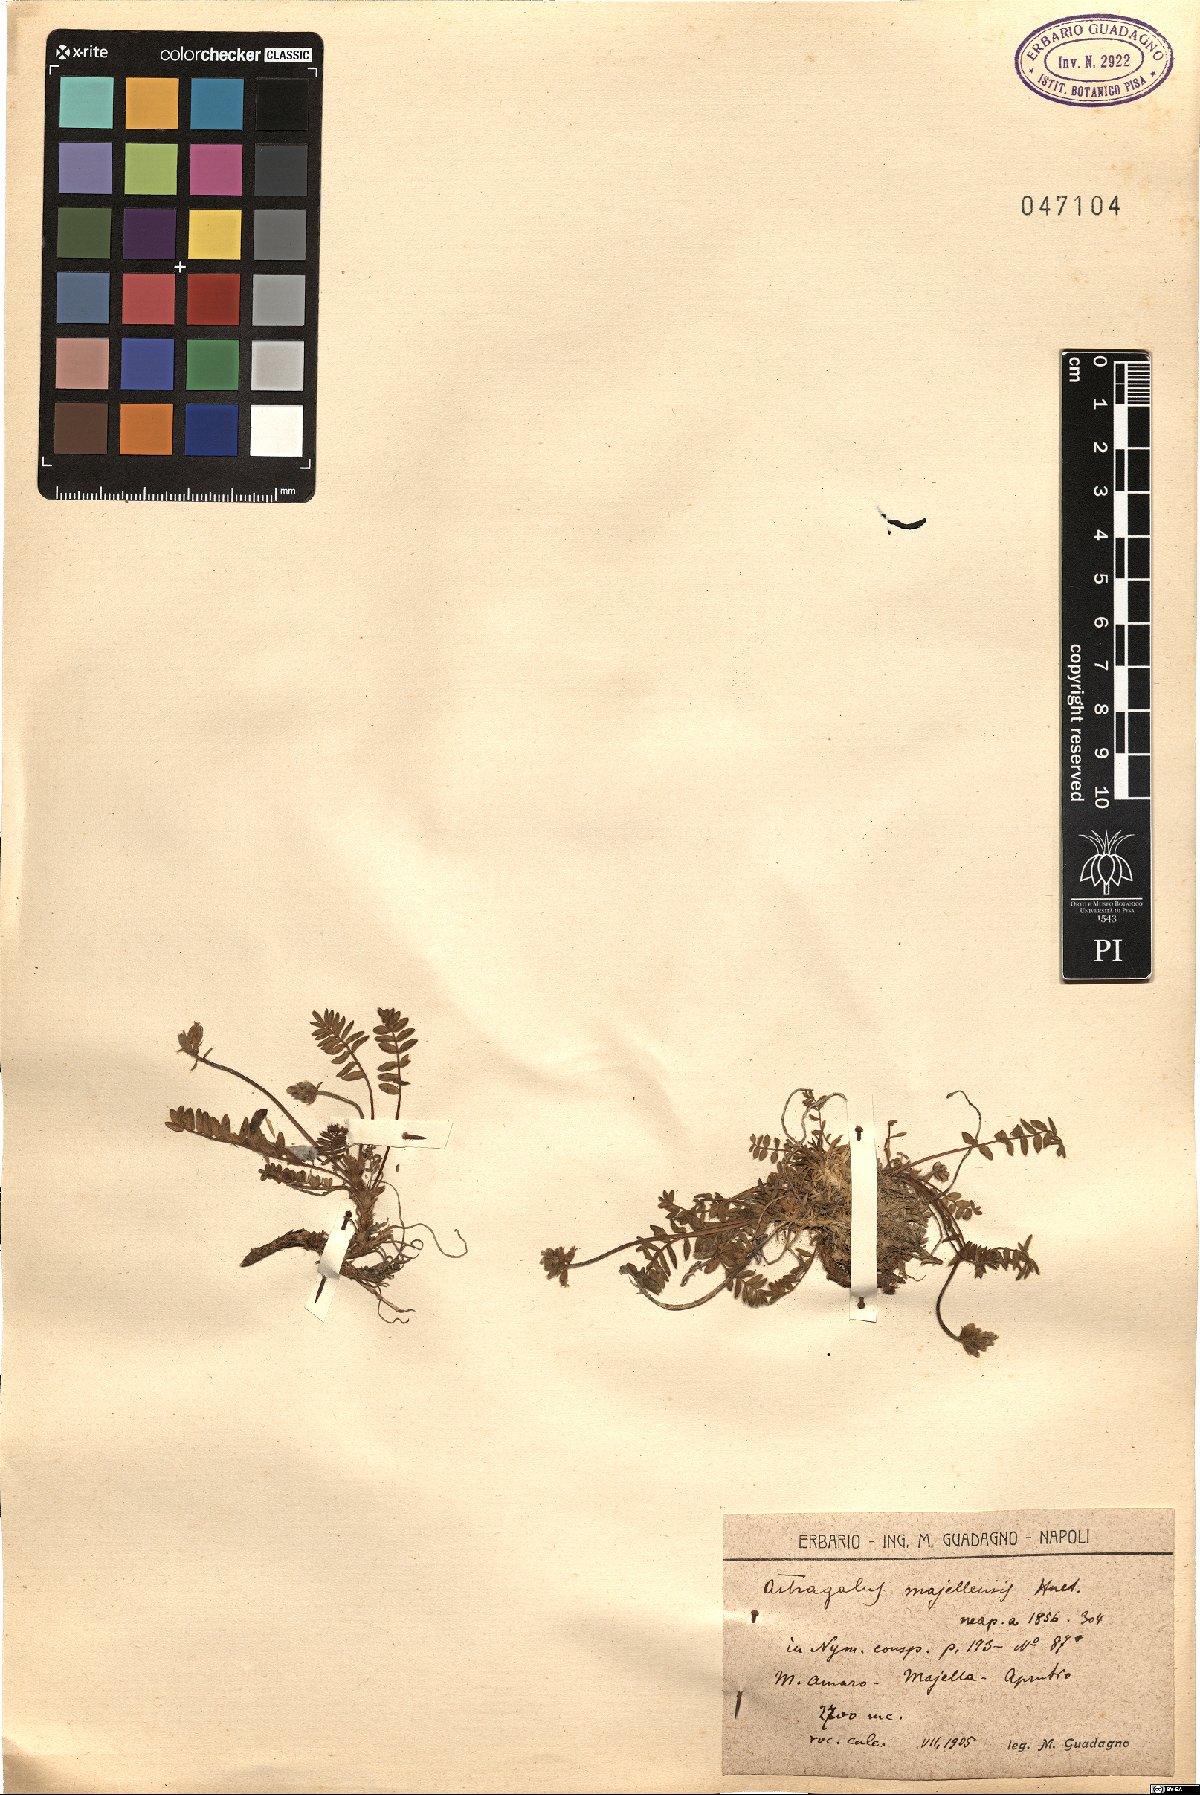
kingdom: Plantae
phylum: Tracheophyta
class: Magnoliopsida
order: Fabales
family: Fabaceae
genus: Astragalus
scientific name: Astragalus australis
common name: Indian milk-vetch
